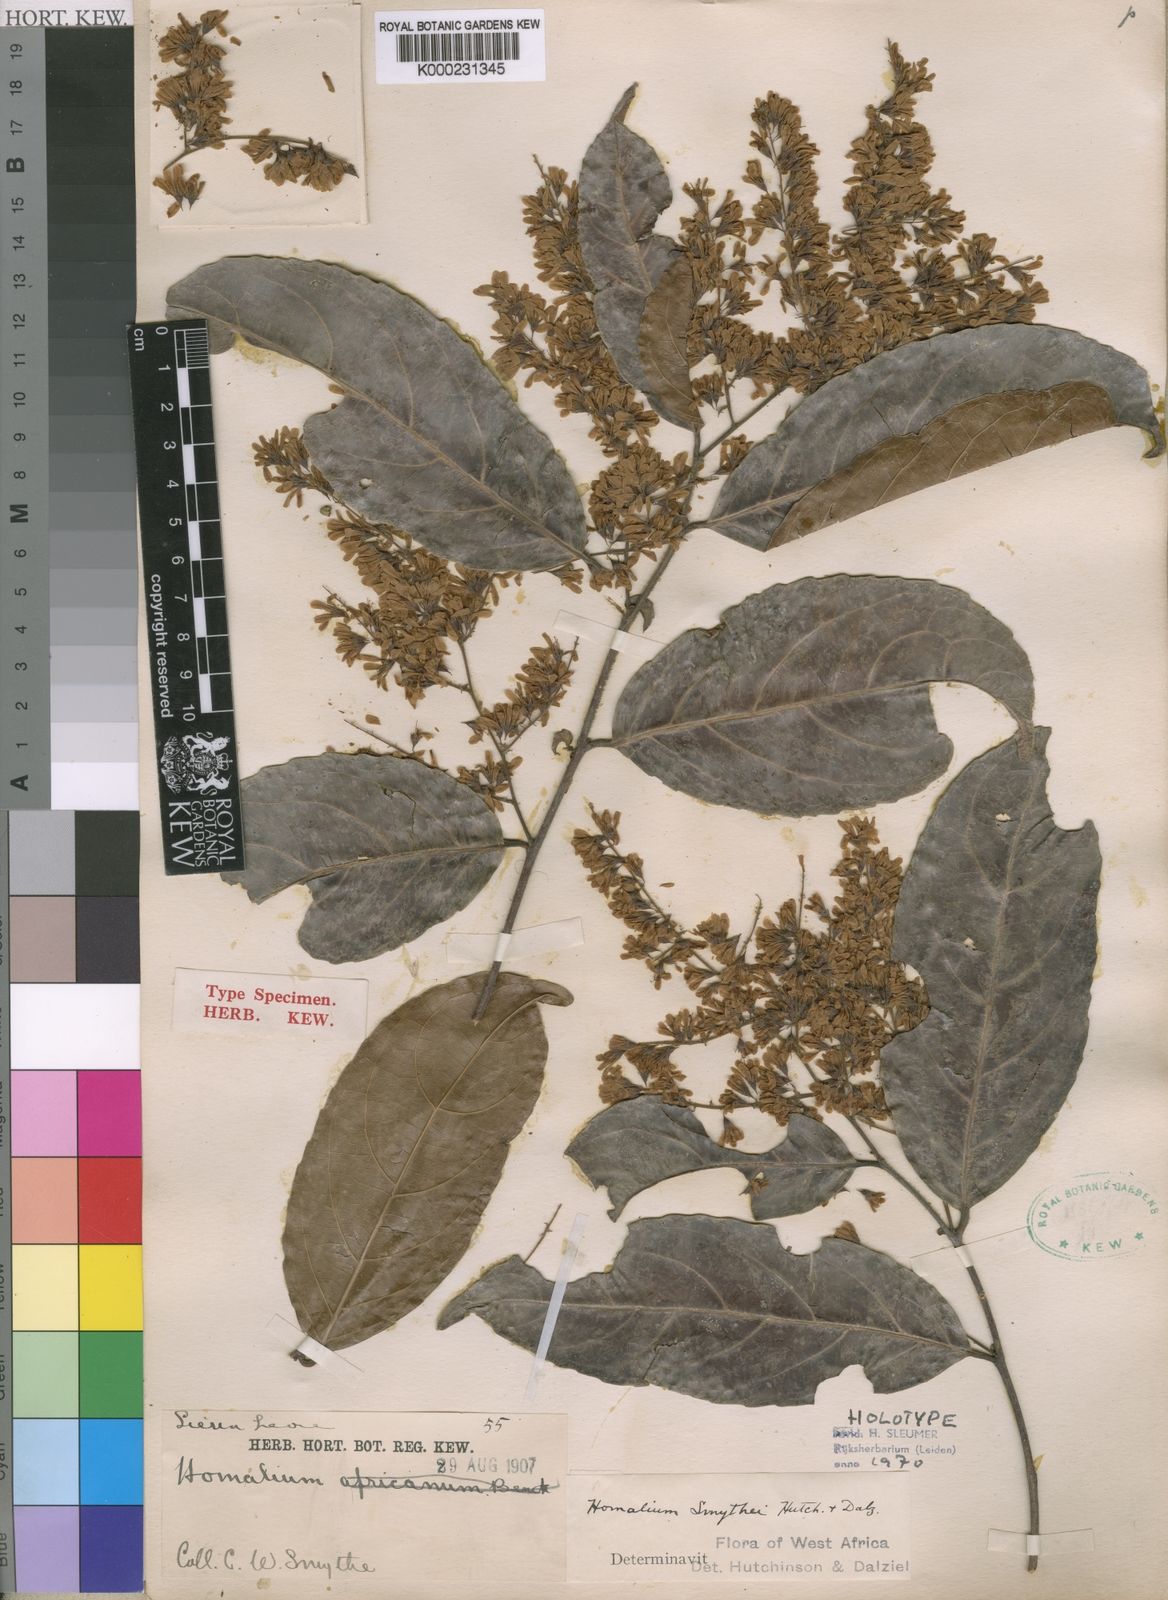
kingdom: Plantae
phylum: Tracheophyta
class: Magnoliopsida
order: Malpighiales
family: Salicaceae
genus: Homalium
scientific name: Homalium smythei
